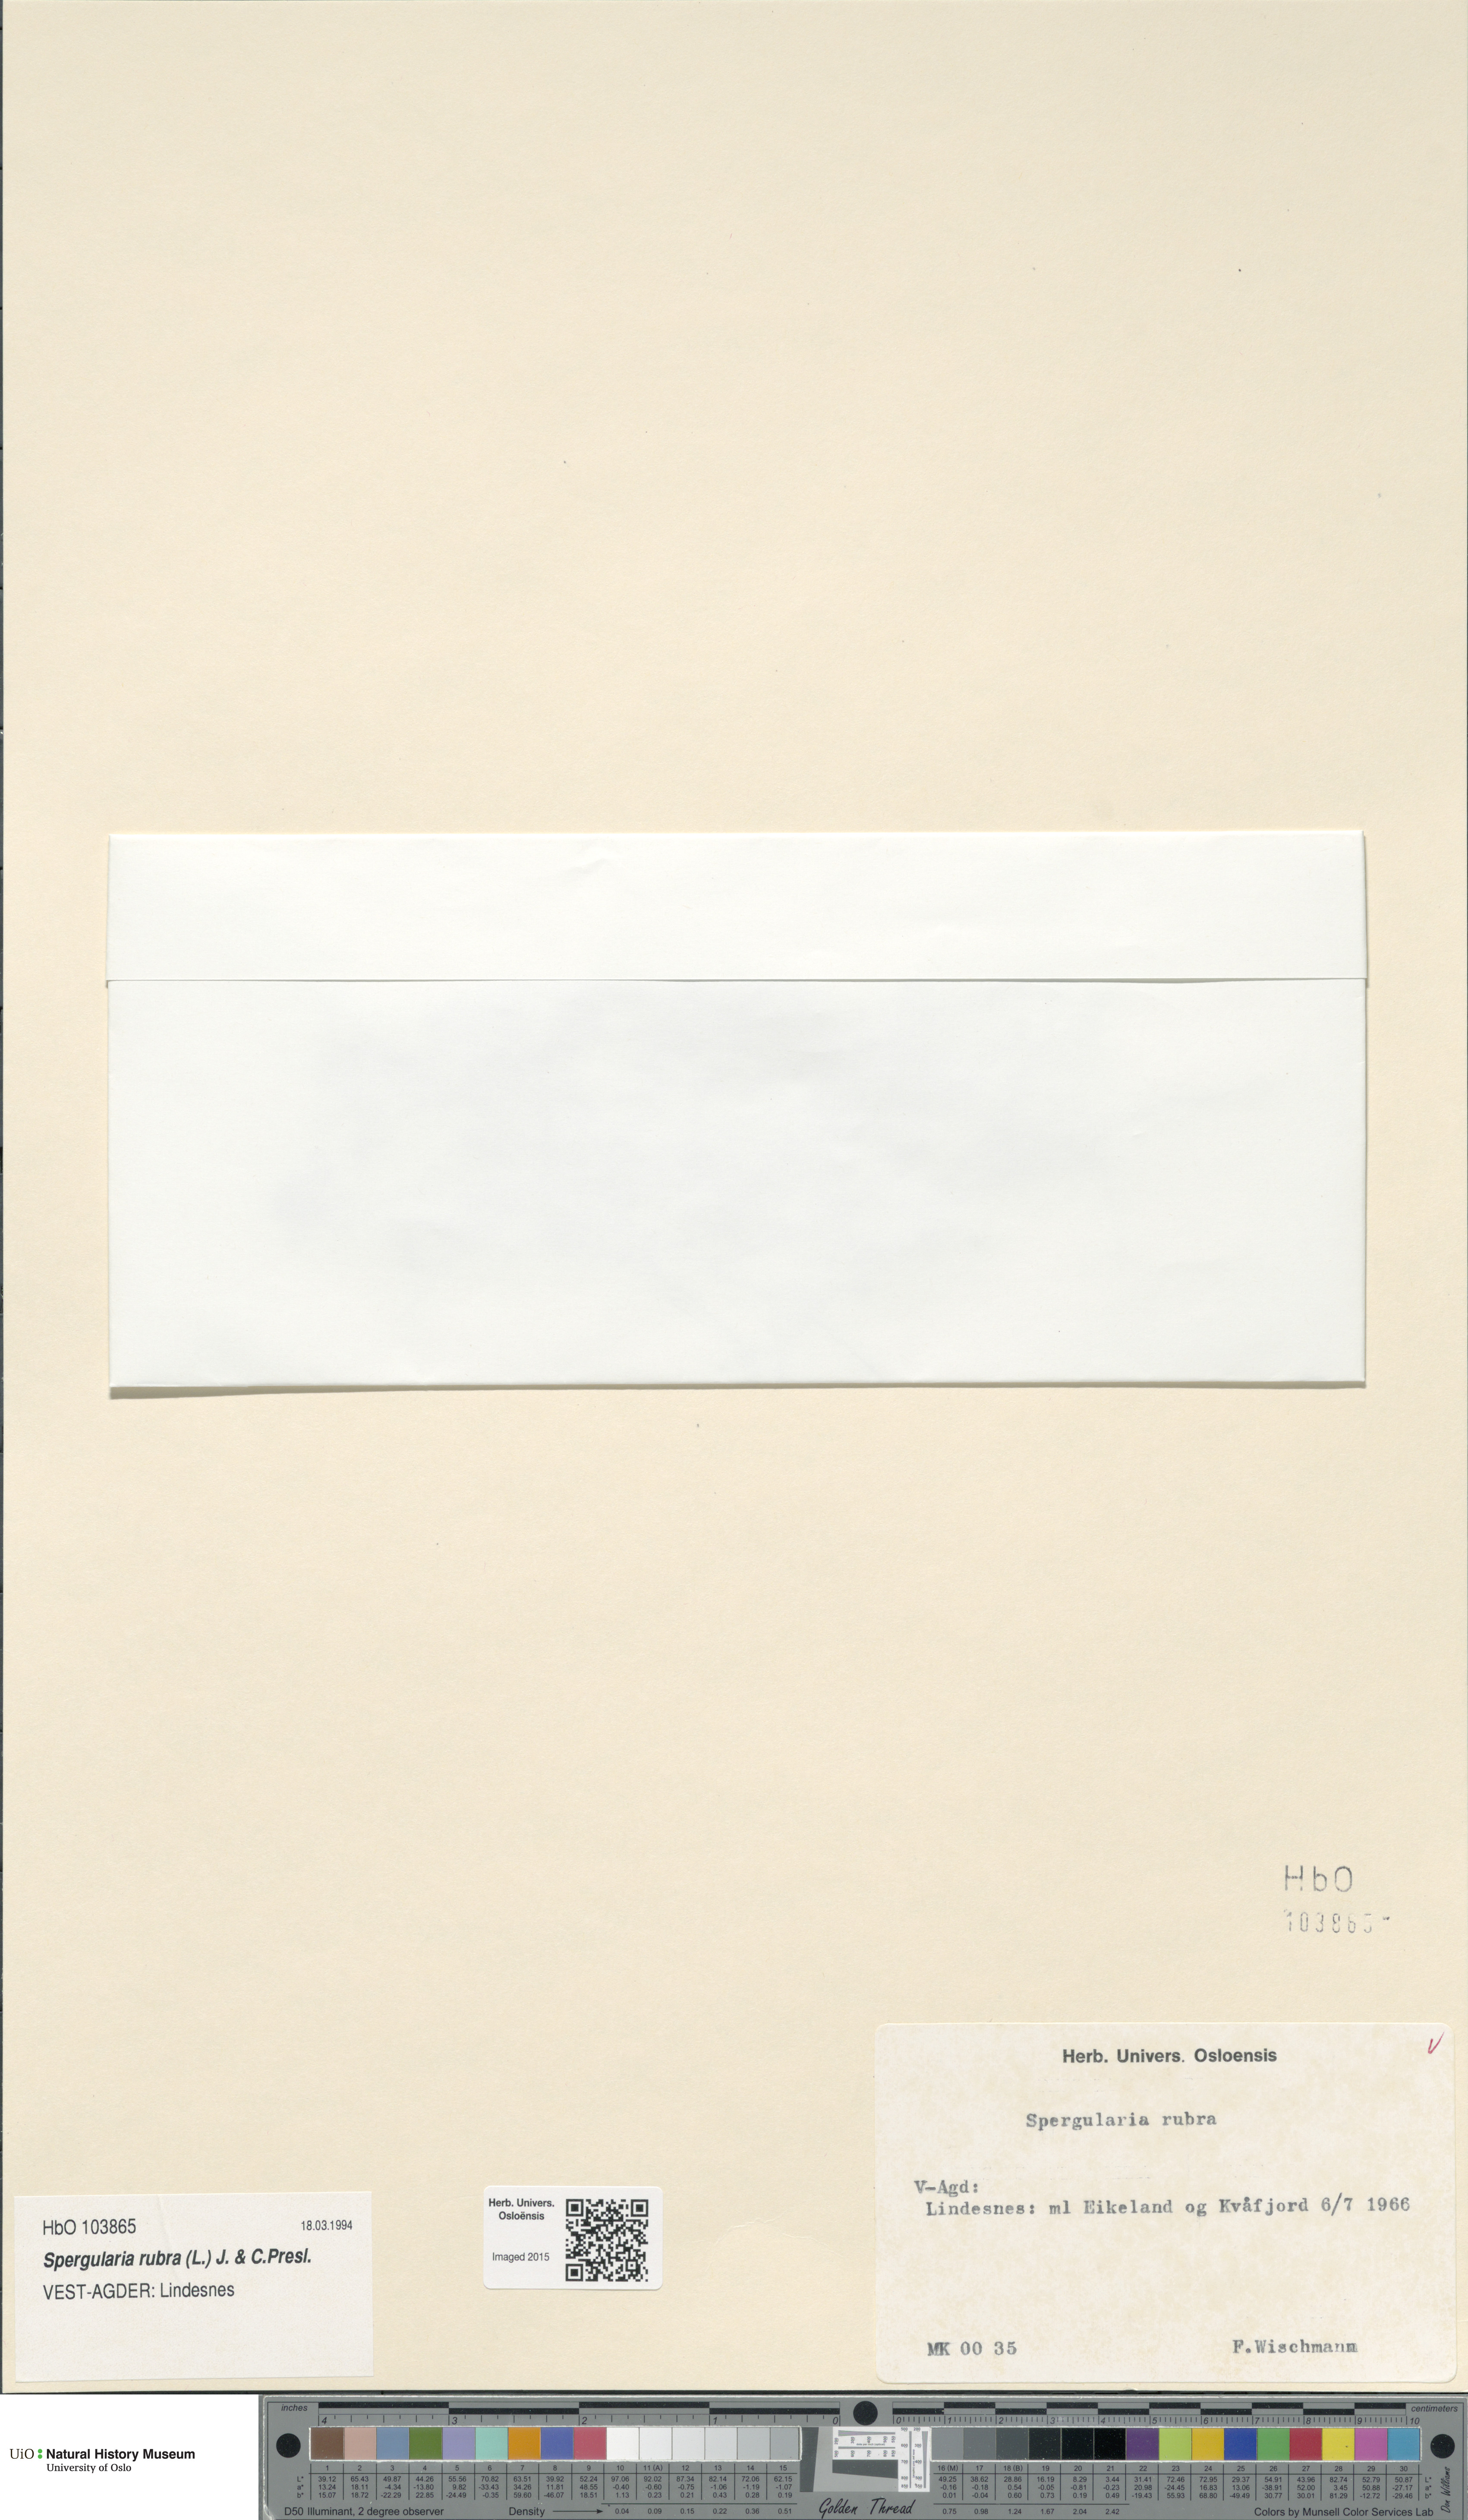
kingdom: Plantae
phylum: Tracheophyta
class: Magnoliopsida
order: Caryophyllales
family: Caryophyllaceae
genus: Spergularia
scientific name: Spergularia rubra
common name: Red sand-spurrey
